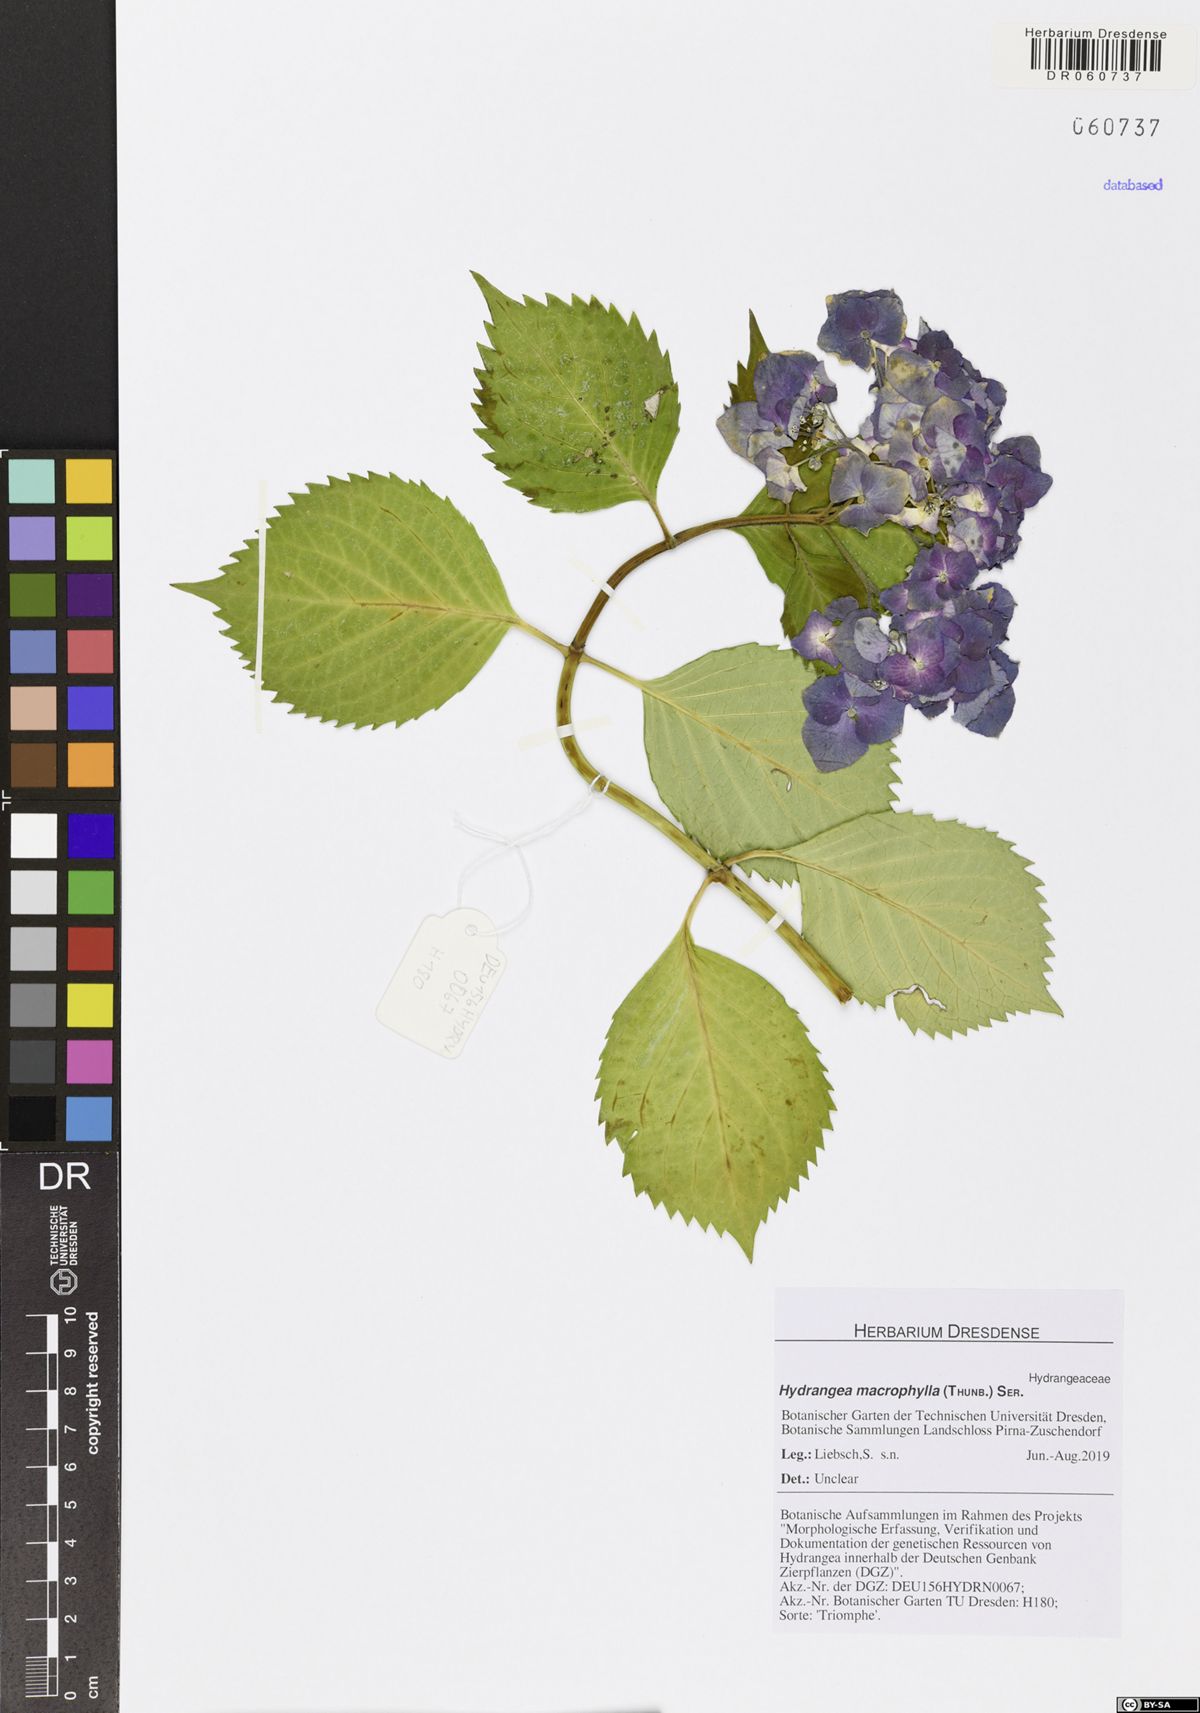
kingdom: Plantae
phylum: Tracheophyta
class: Magnoliopsida
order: Cornales
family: Hydrangeaceae
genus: Hydrangea
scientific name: Hydrangea macrophylla
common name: Hydrangea
